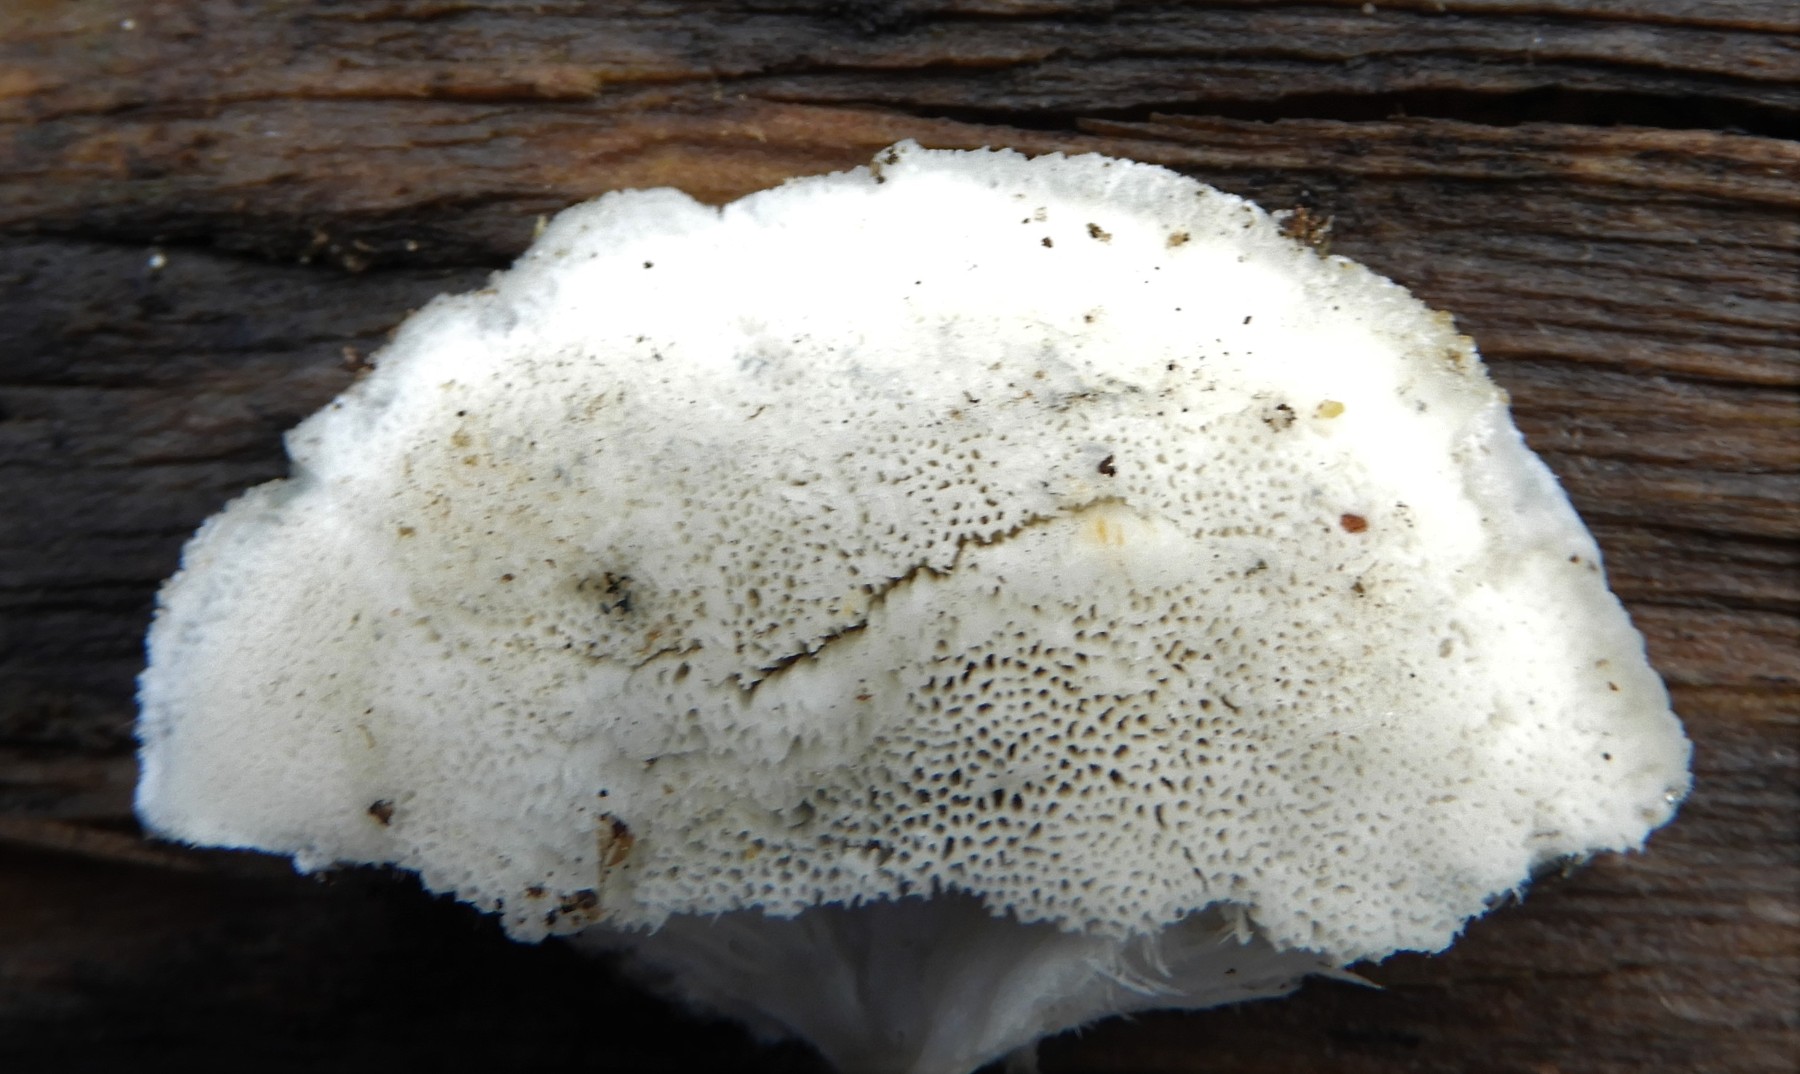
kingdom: Fungi
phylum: Basidiomycota
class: Agaricomycetes
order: Polyporales
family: Polyporaceae
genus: Cyanosporus
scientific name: Cyanosporus caesius
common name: blålig kødporesvamp
